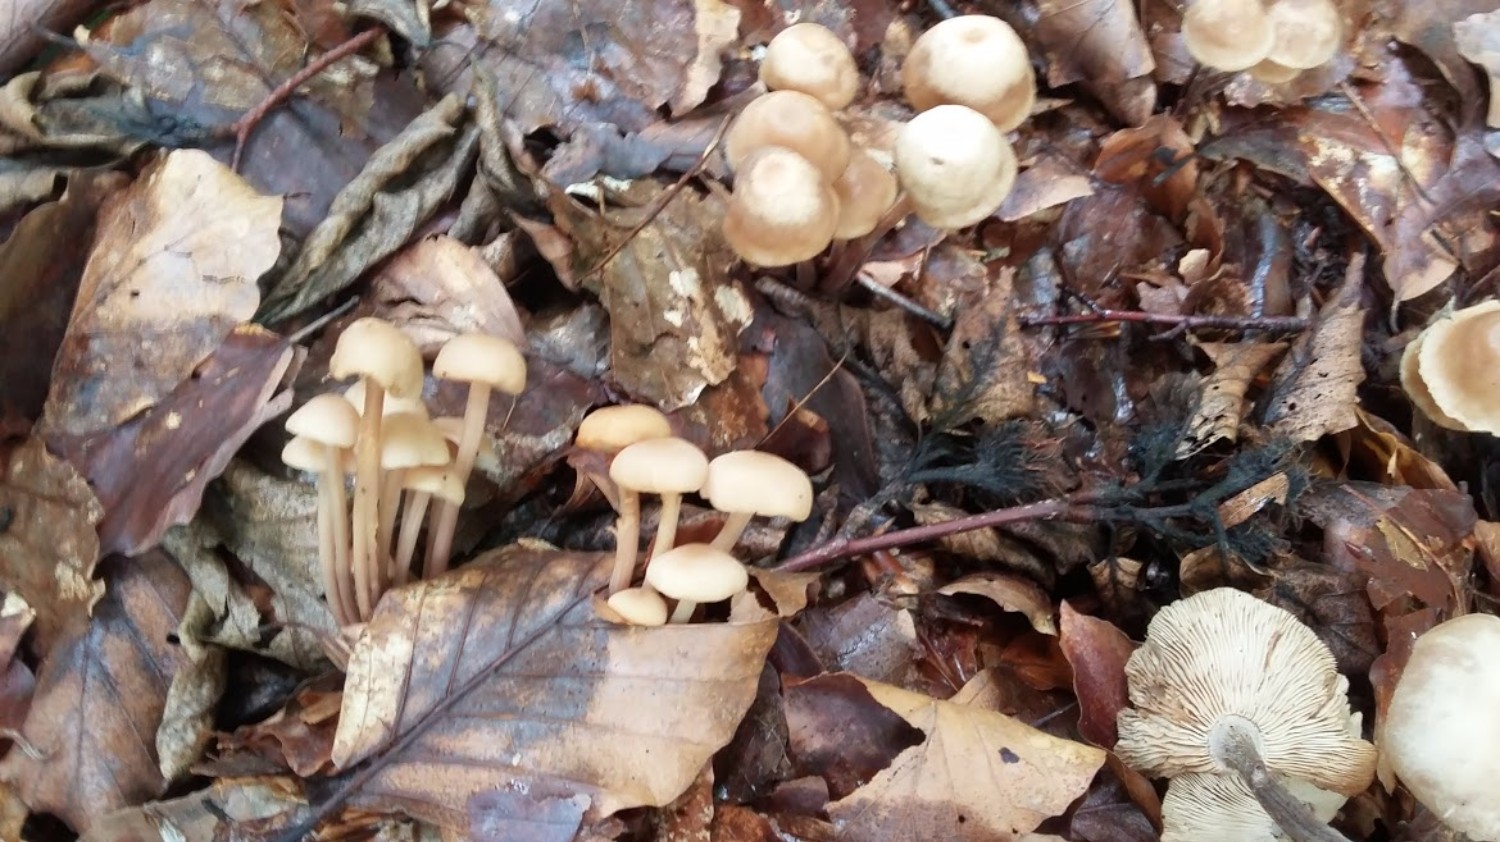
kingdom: Fungi
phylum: Basidiomycota
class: Agaricomycetes
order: Agaricales
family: Omphalotaceae
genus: Collybiopsis
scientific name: Collybiopsis confluens
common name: knippe-fladhat
